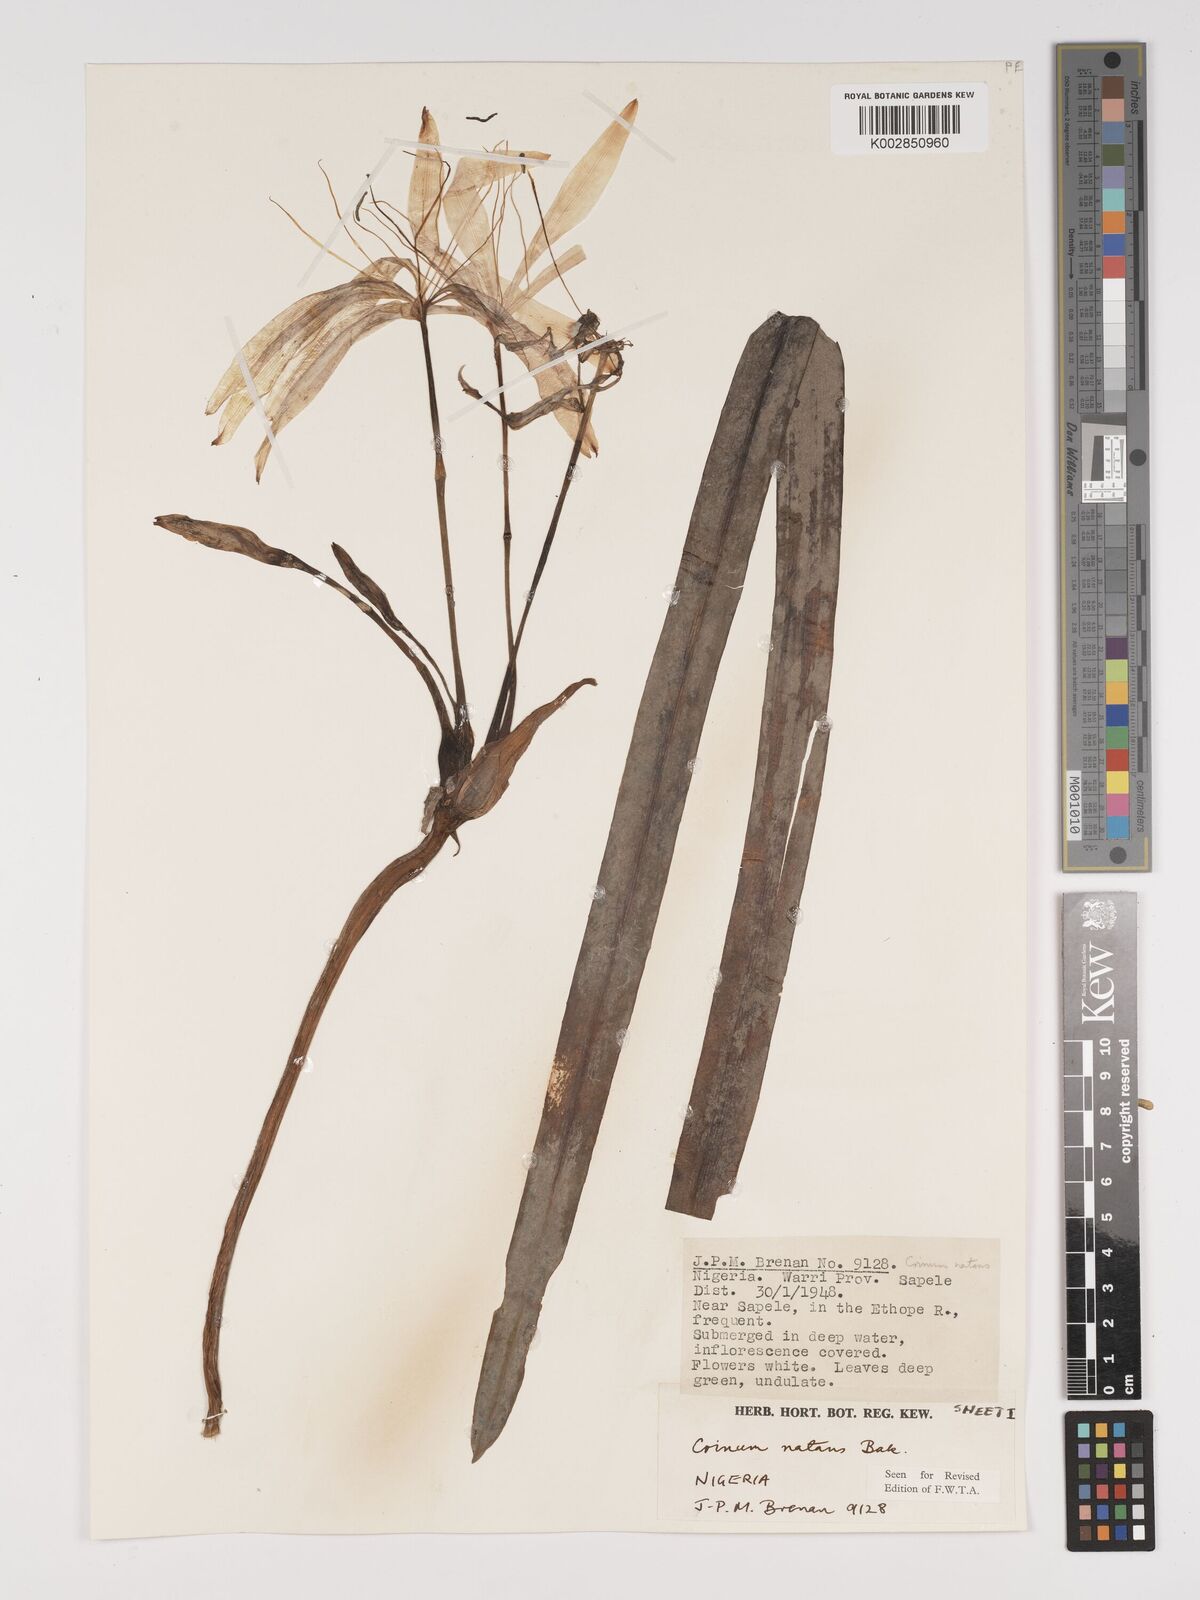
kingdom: Plantae
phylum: Tracheophyta
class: Liliopsida
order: Asparagales
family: Amaryllidaceae
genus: Crinum
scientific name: Crinum natans
